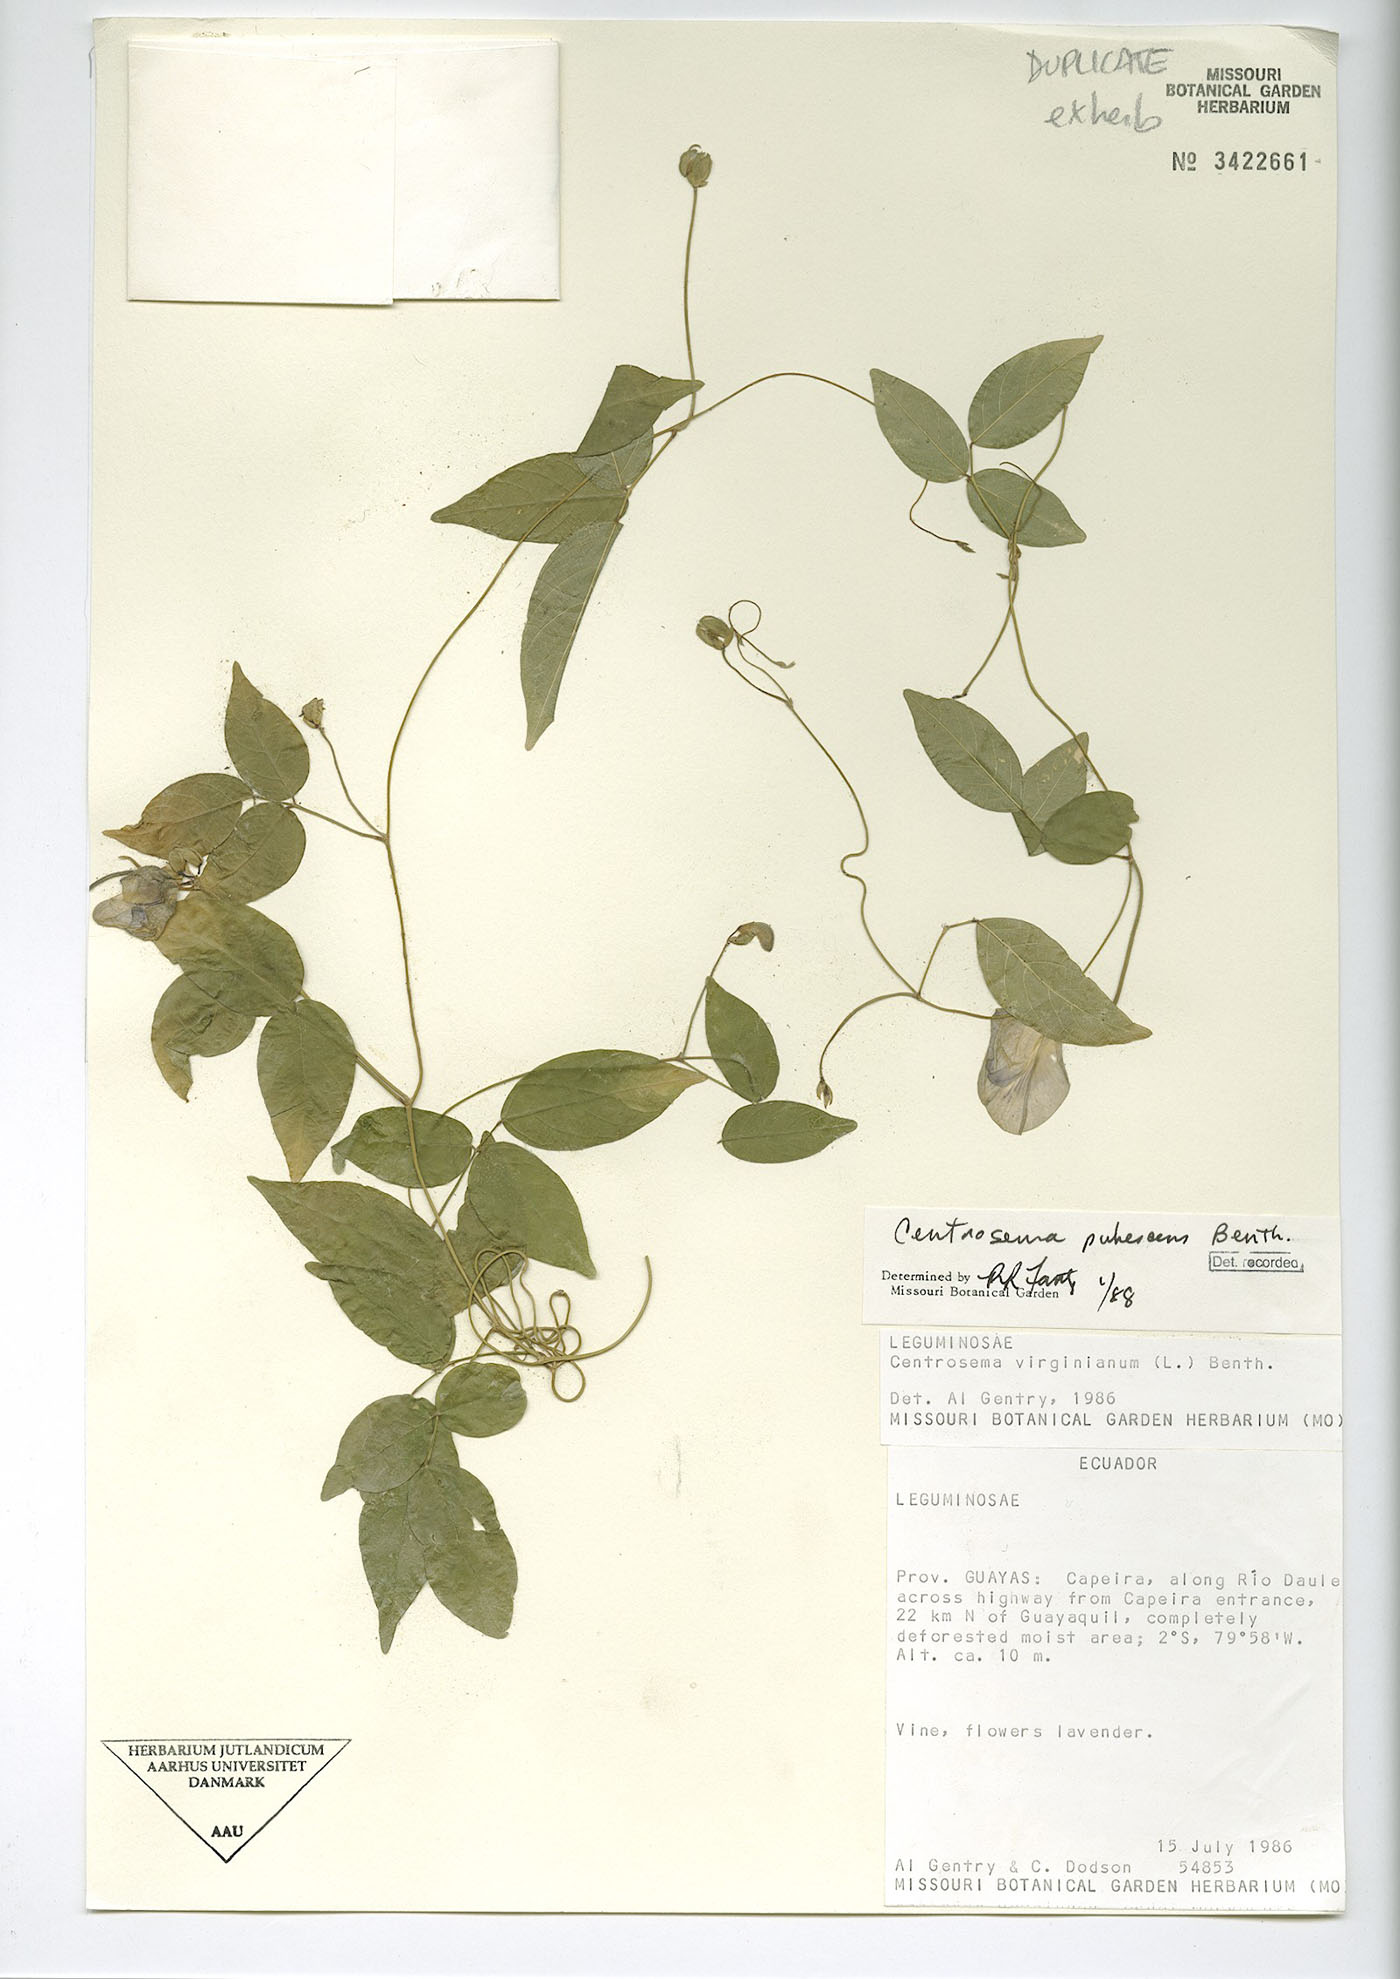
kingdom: Plantae
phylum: Tracheophyta
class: Magnoliopsida
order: Fabales
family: Fabaceae
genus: Centrosema
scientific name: Centrosema molle
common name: Soft butterfly pea
